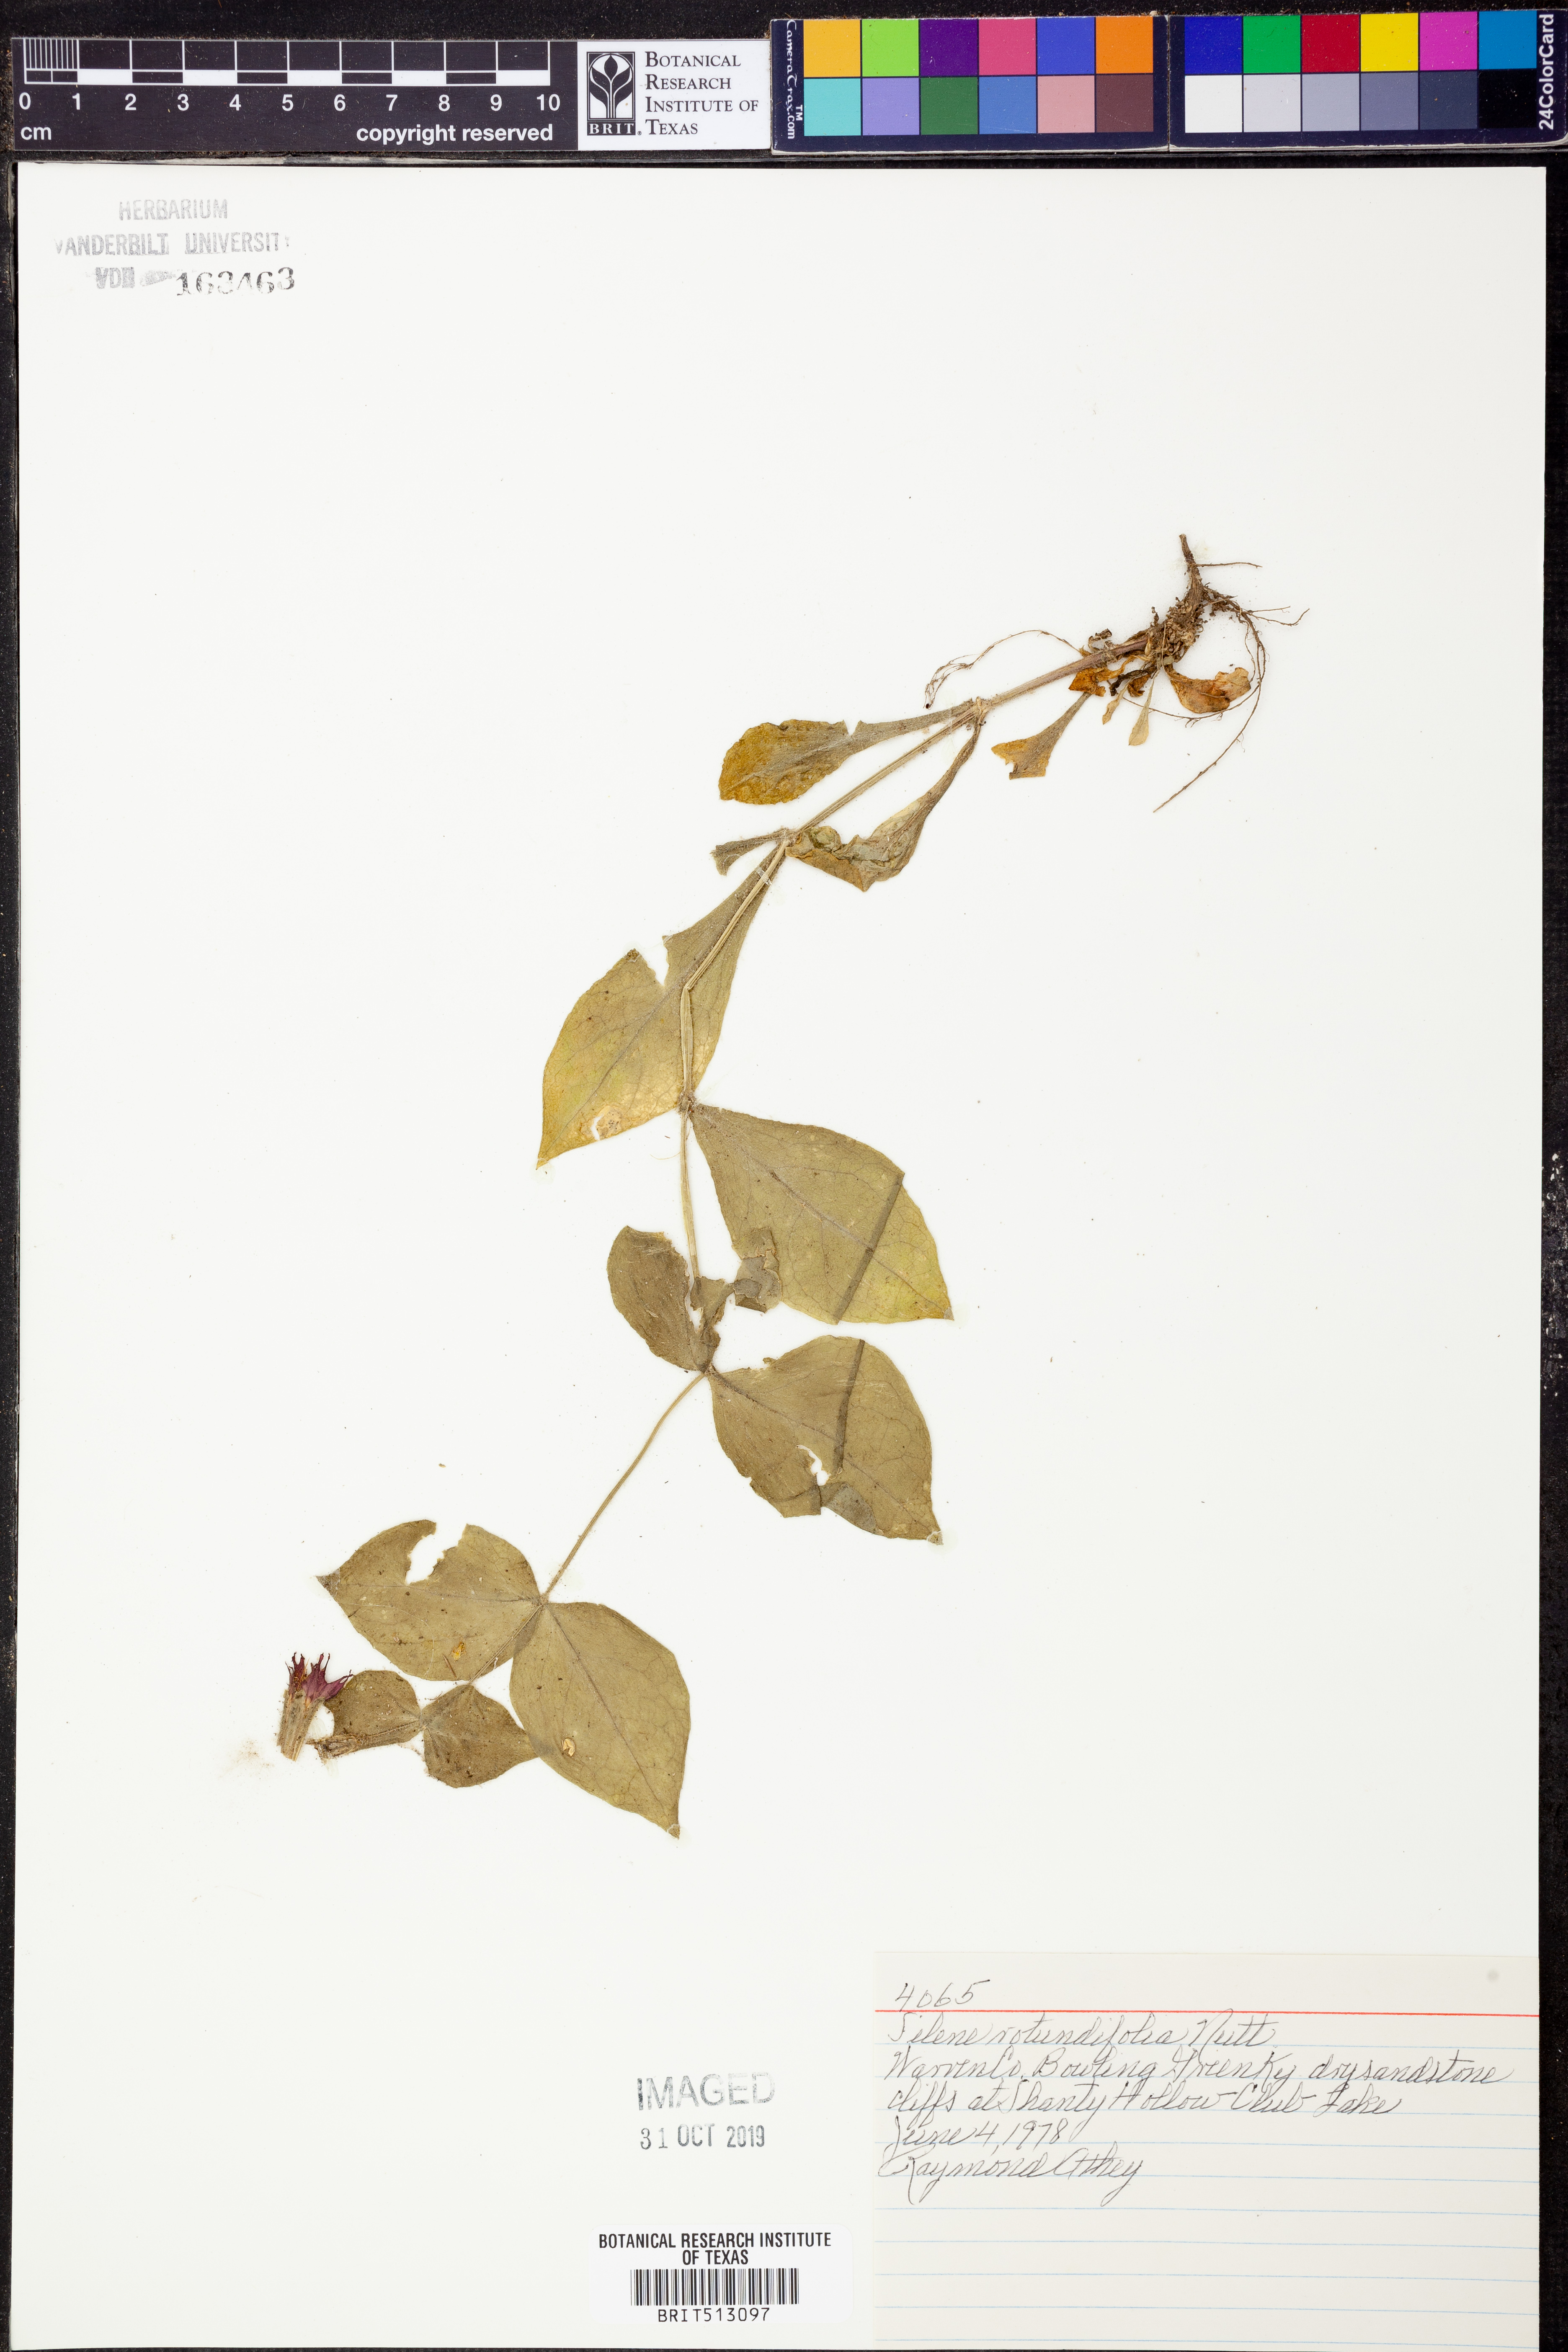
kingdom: Plantae
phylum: Tracheophyta
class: Magnoliopsida
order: Caryophyllales
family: Caryophyllaceae
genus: Silene
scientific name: Silene rotundifolia
